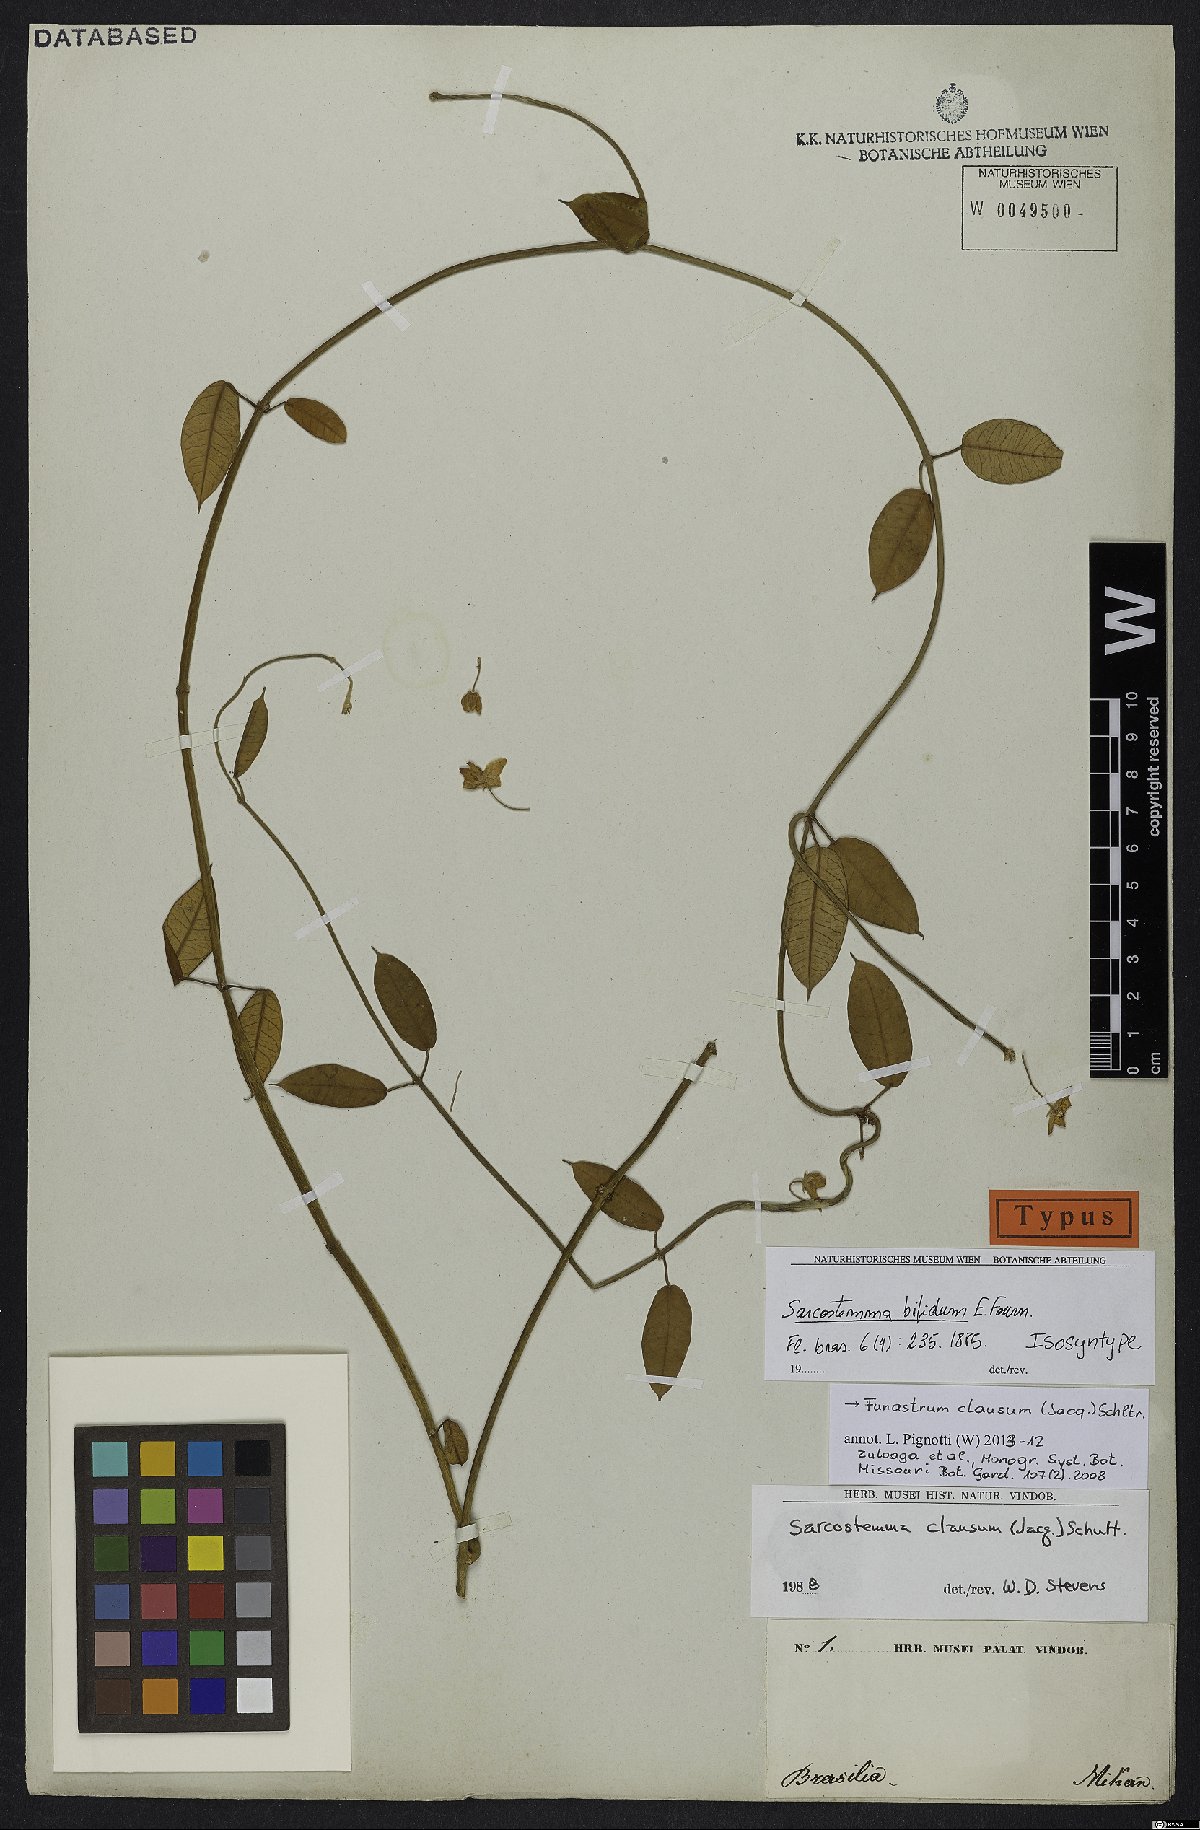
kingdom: Plantae
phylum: Tracheophyta
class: Magnoliopsida
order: Gentianales
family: Apocynaceae
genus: Funastrum
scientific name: Funastrum clausum
